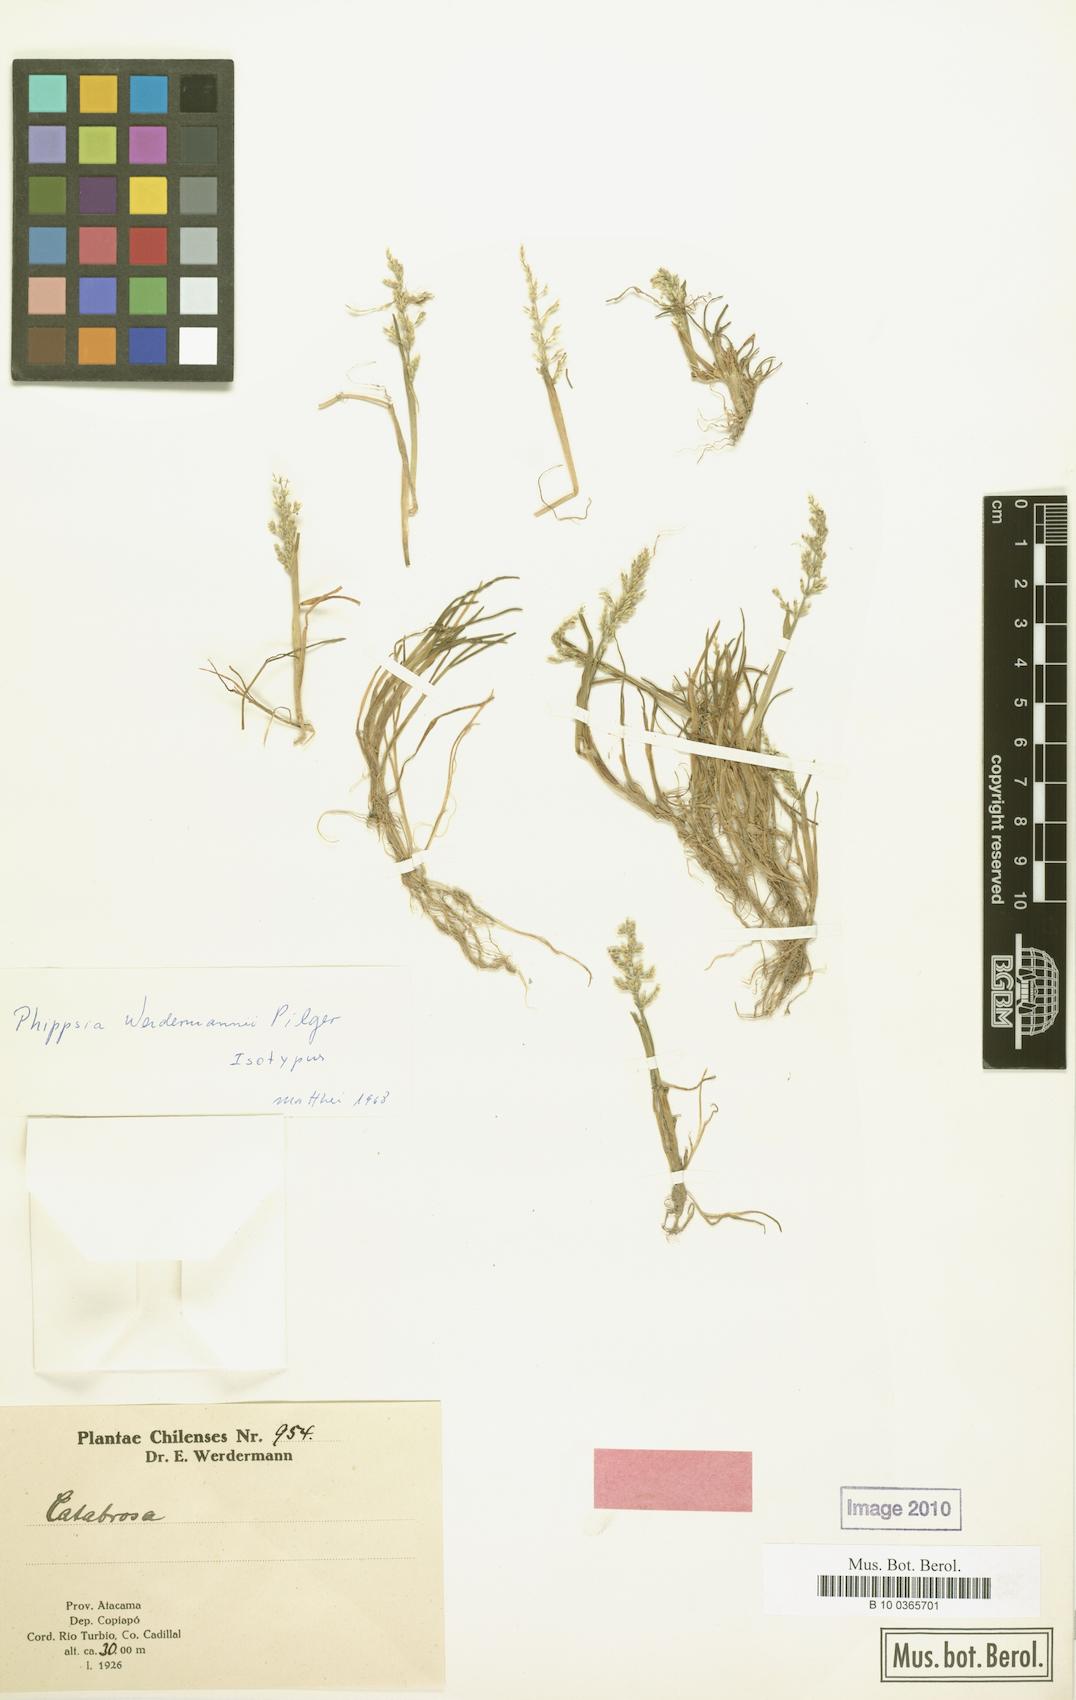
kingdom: Plantae
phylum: Tracheophyta
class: Liliopsida
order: Poales
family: Poaceae
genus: Catabrosa
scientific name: Catabrosa werdermannii
